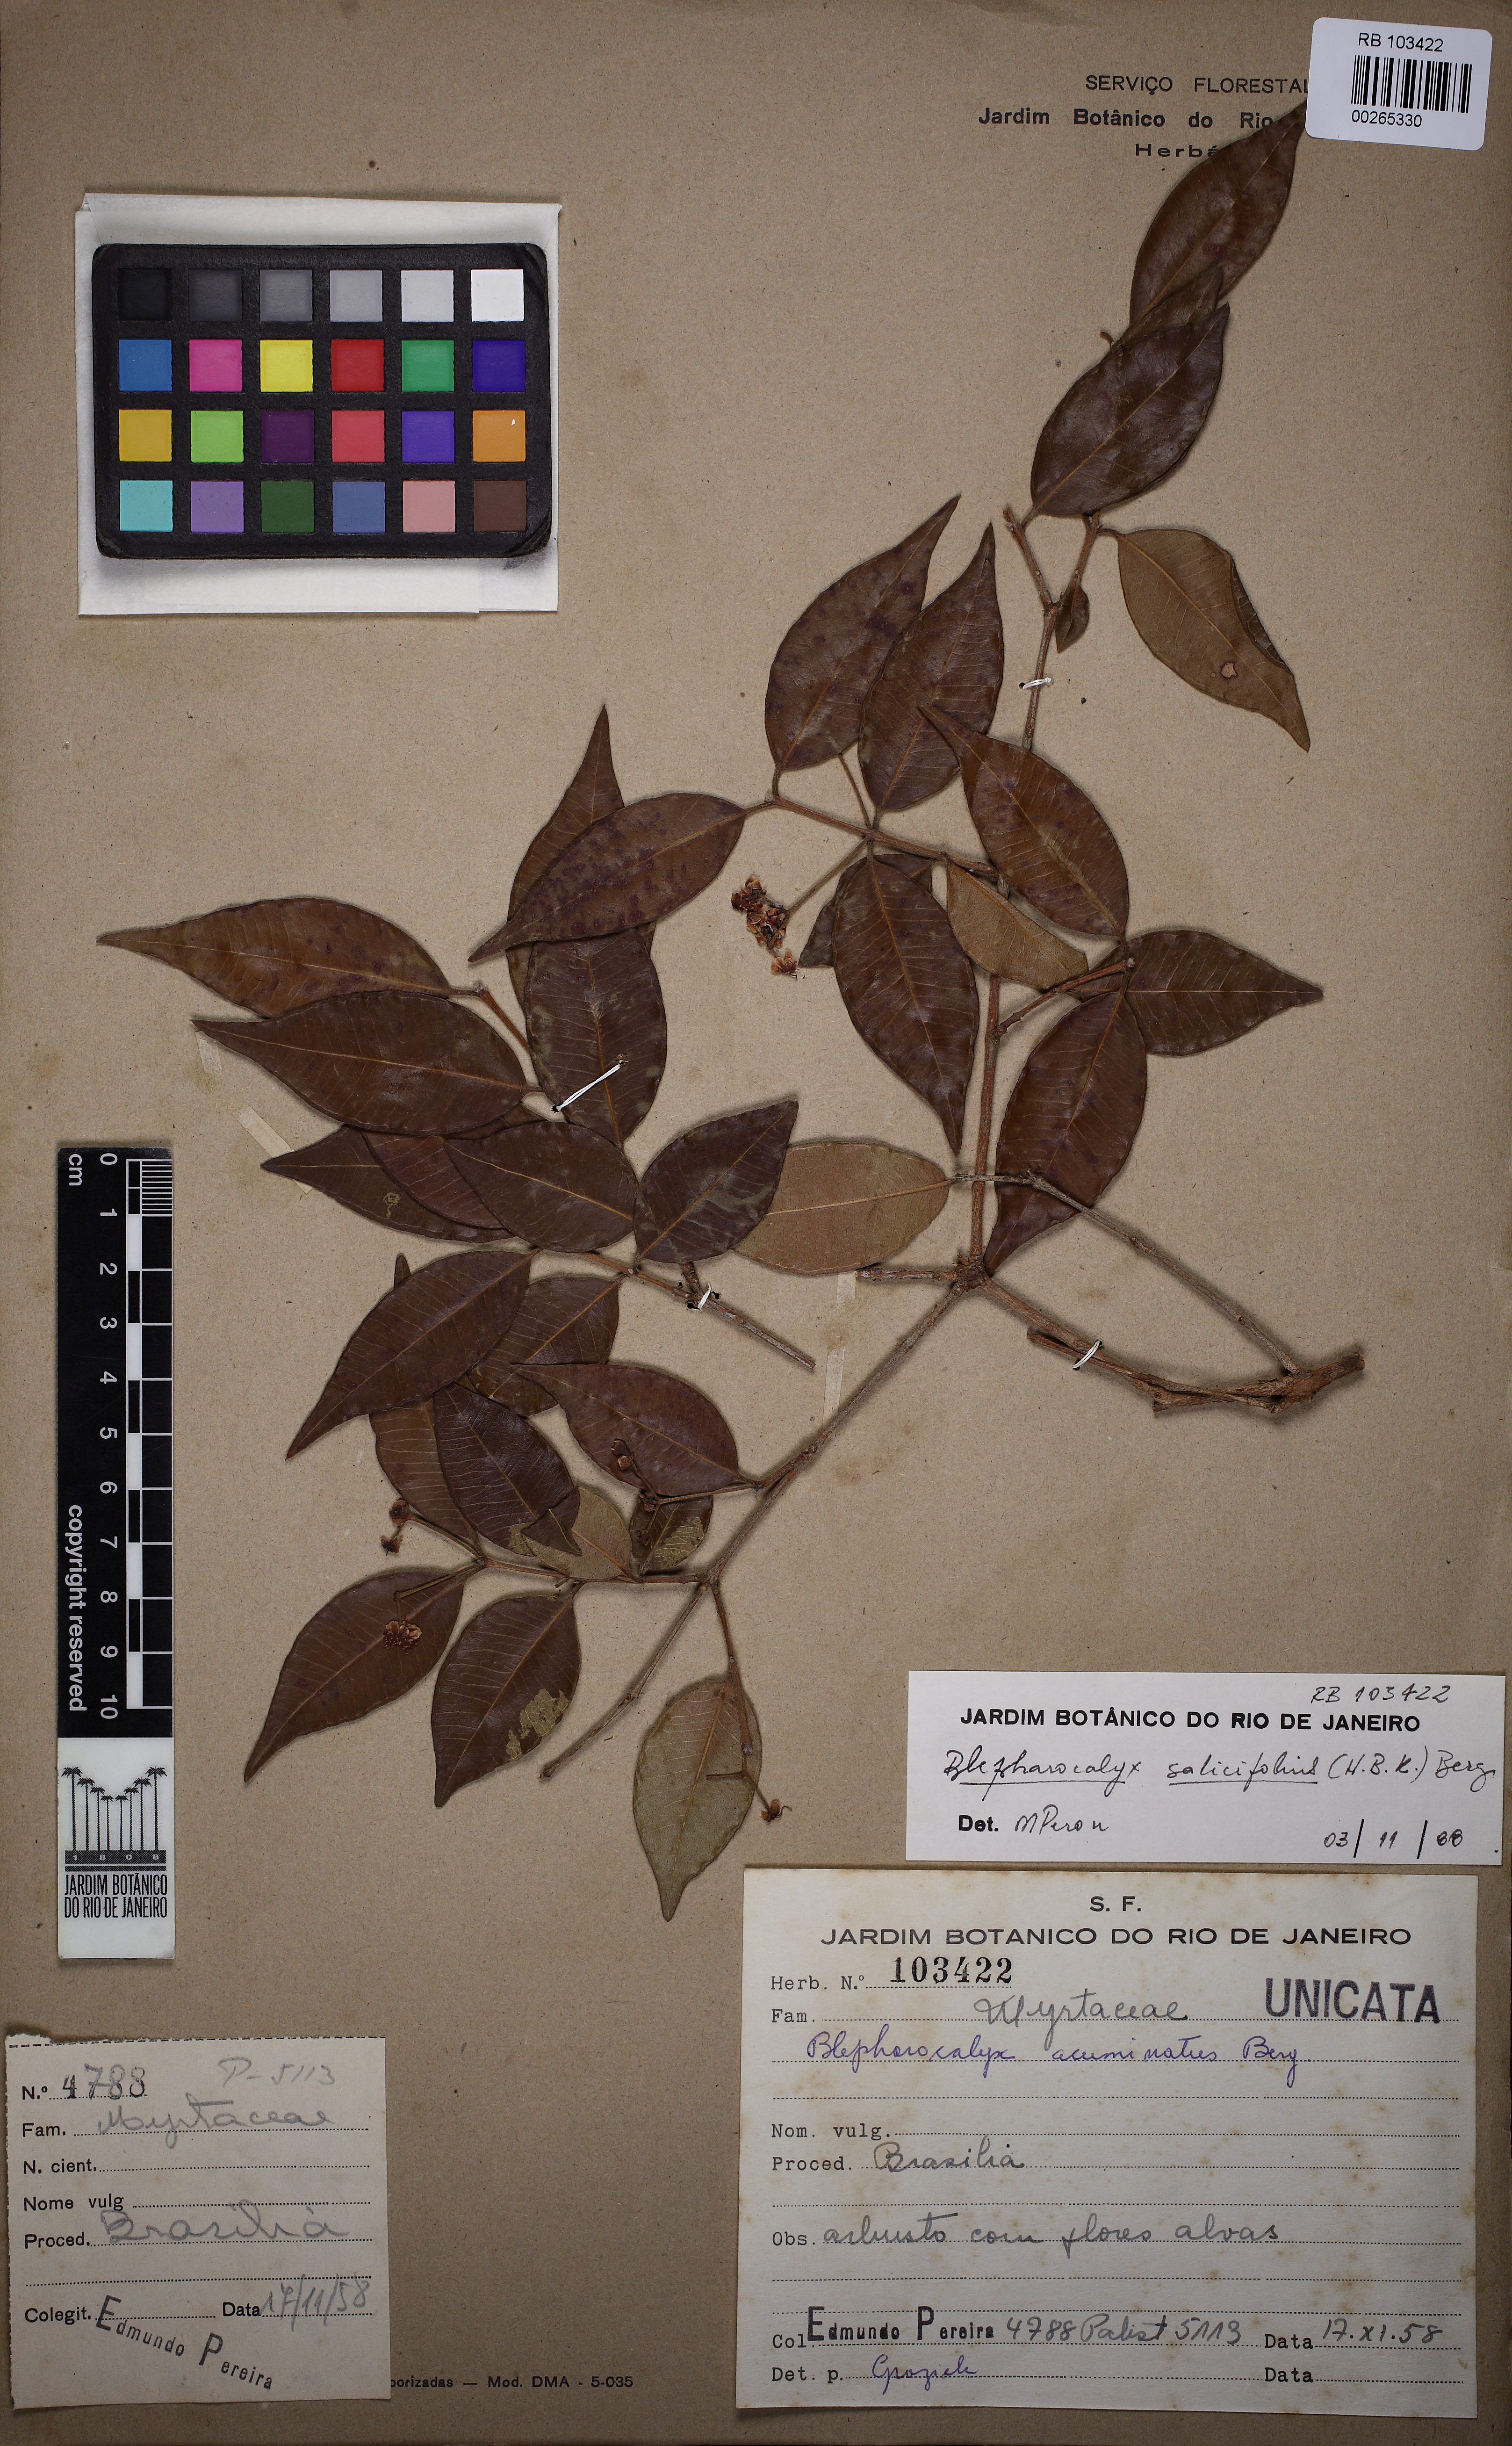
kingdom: Plantae
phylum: Tracheophyta
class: Magnoliopsida
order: Myrtales
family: Myrtaceae
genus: Blepharocalyx
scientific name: Blepharocalyx salicifolius
